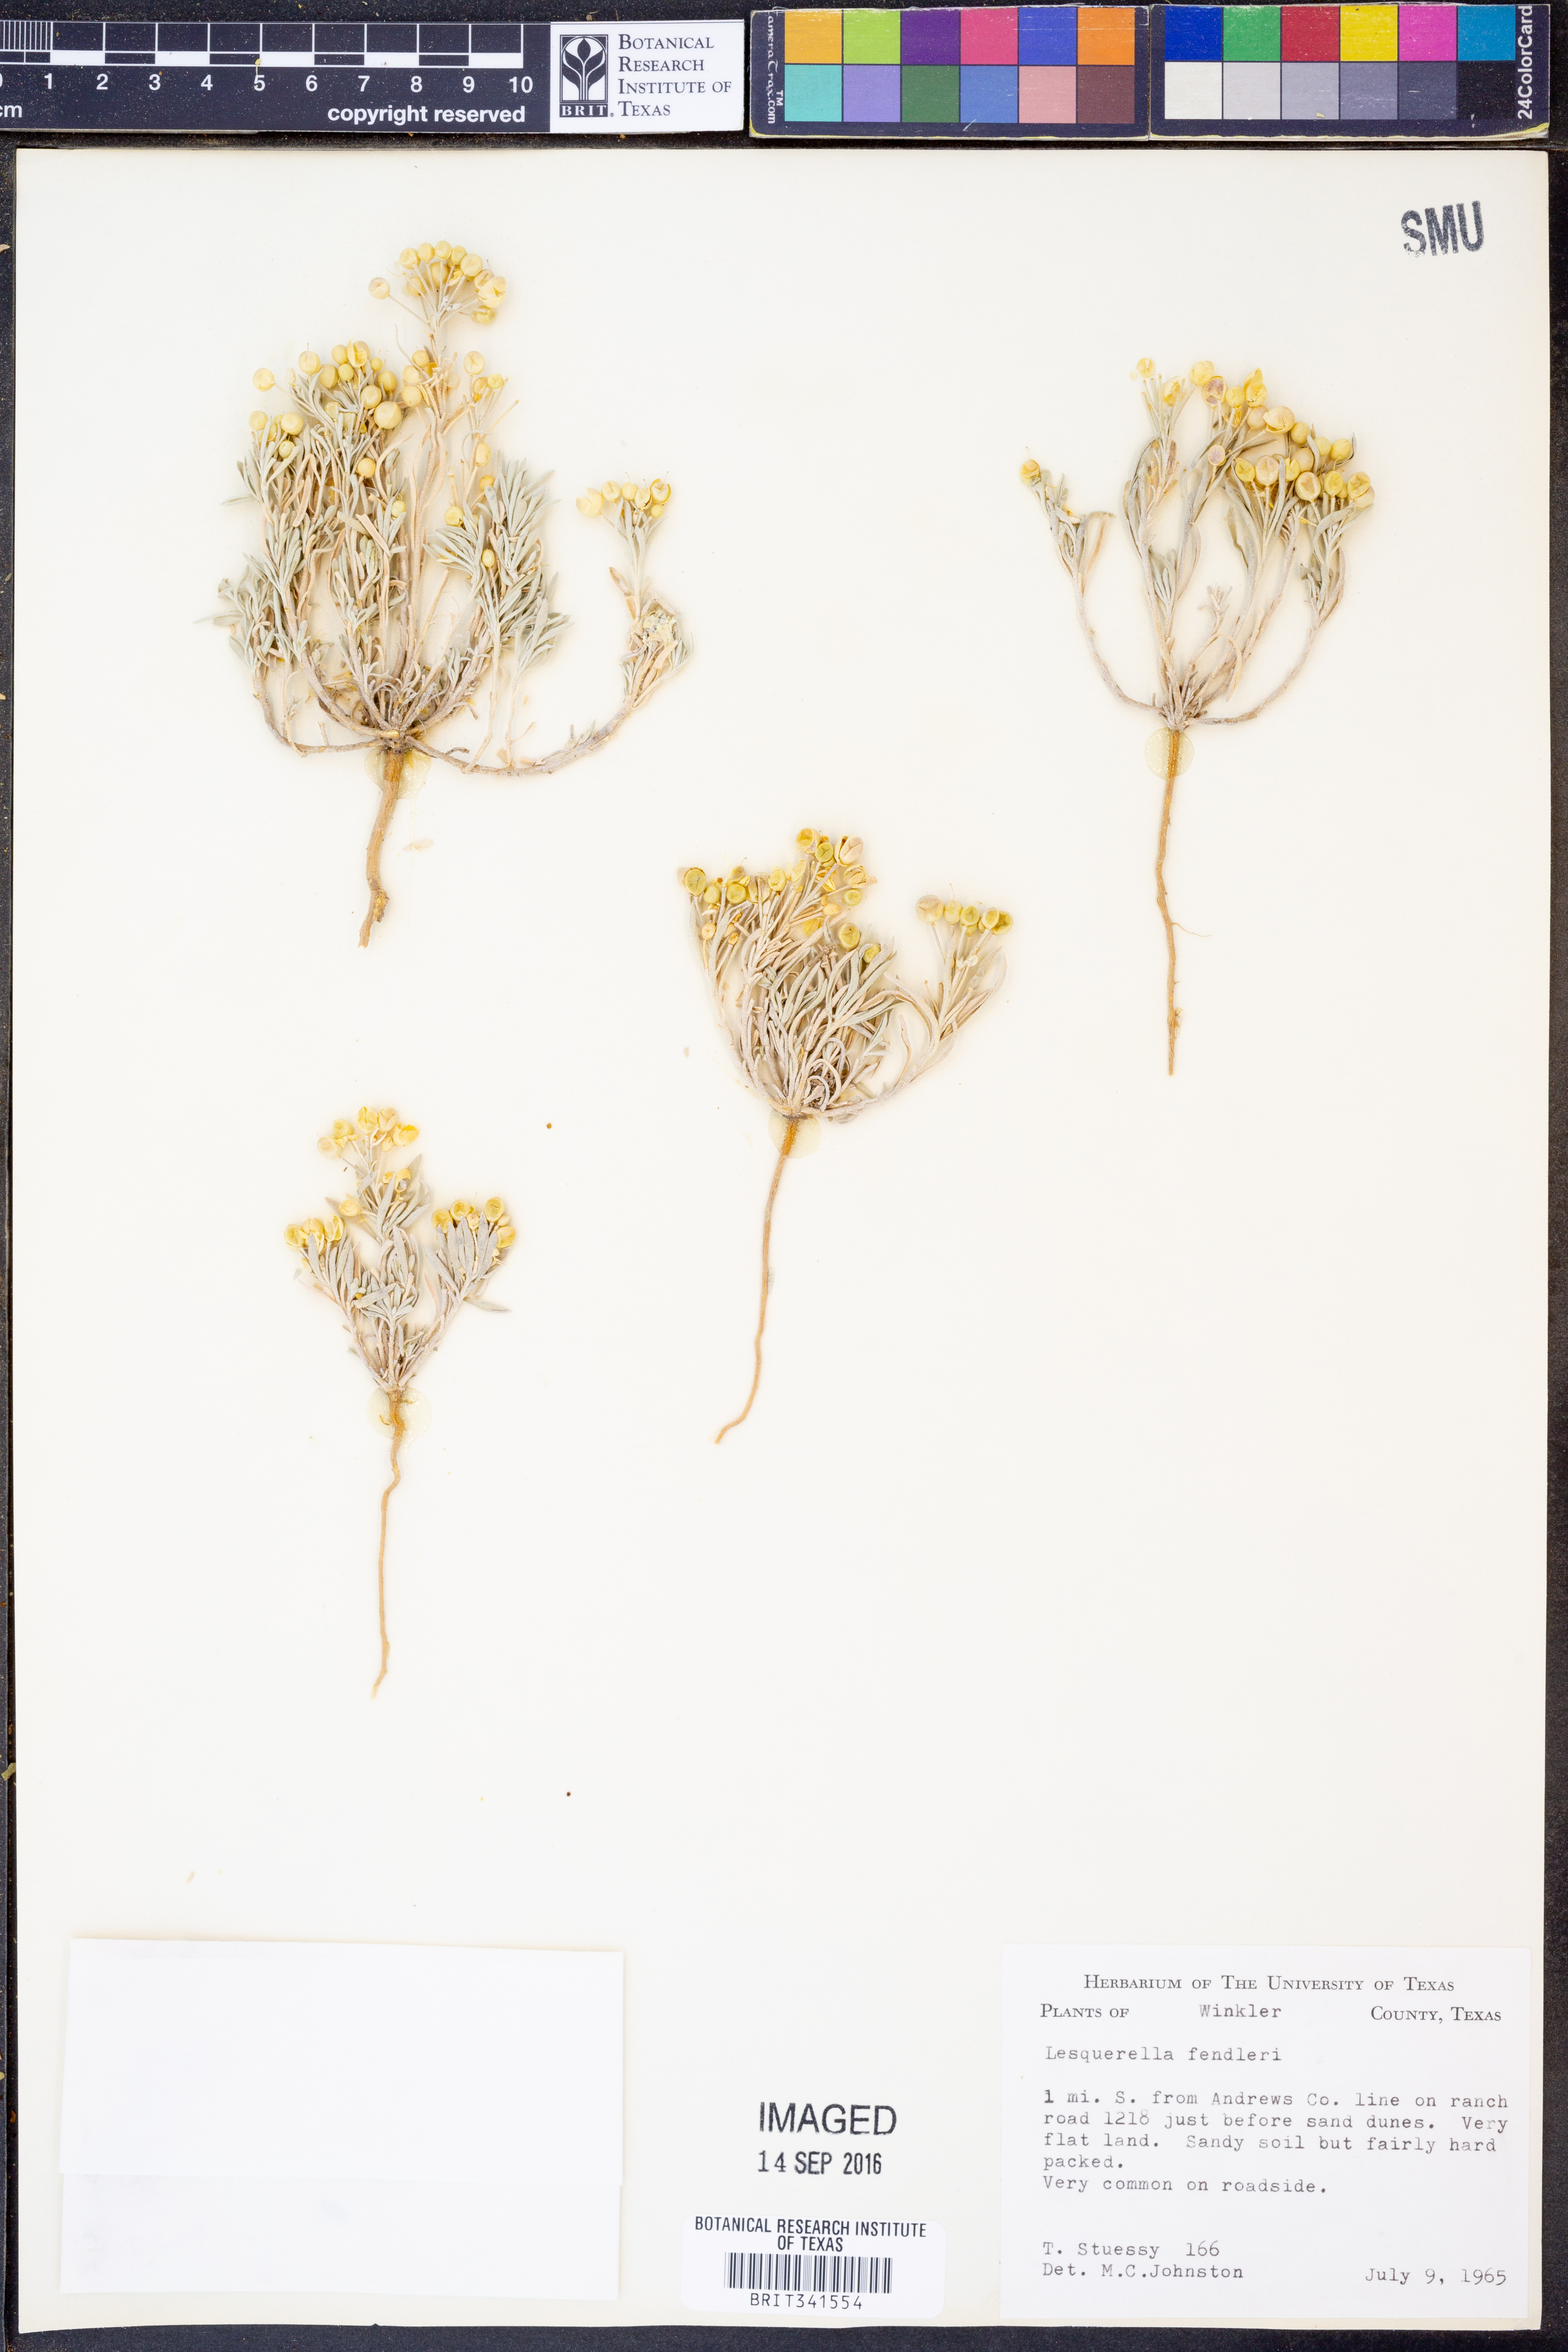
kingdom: Plantae
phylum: Tracheophyta
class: Magnoliopsida
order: Brassicales
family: Brassicaceae
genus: Physaria
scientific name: Physaria fendleri
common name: Fendler's bladderpod
